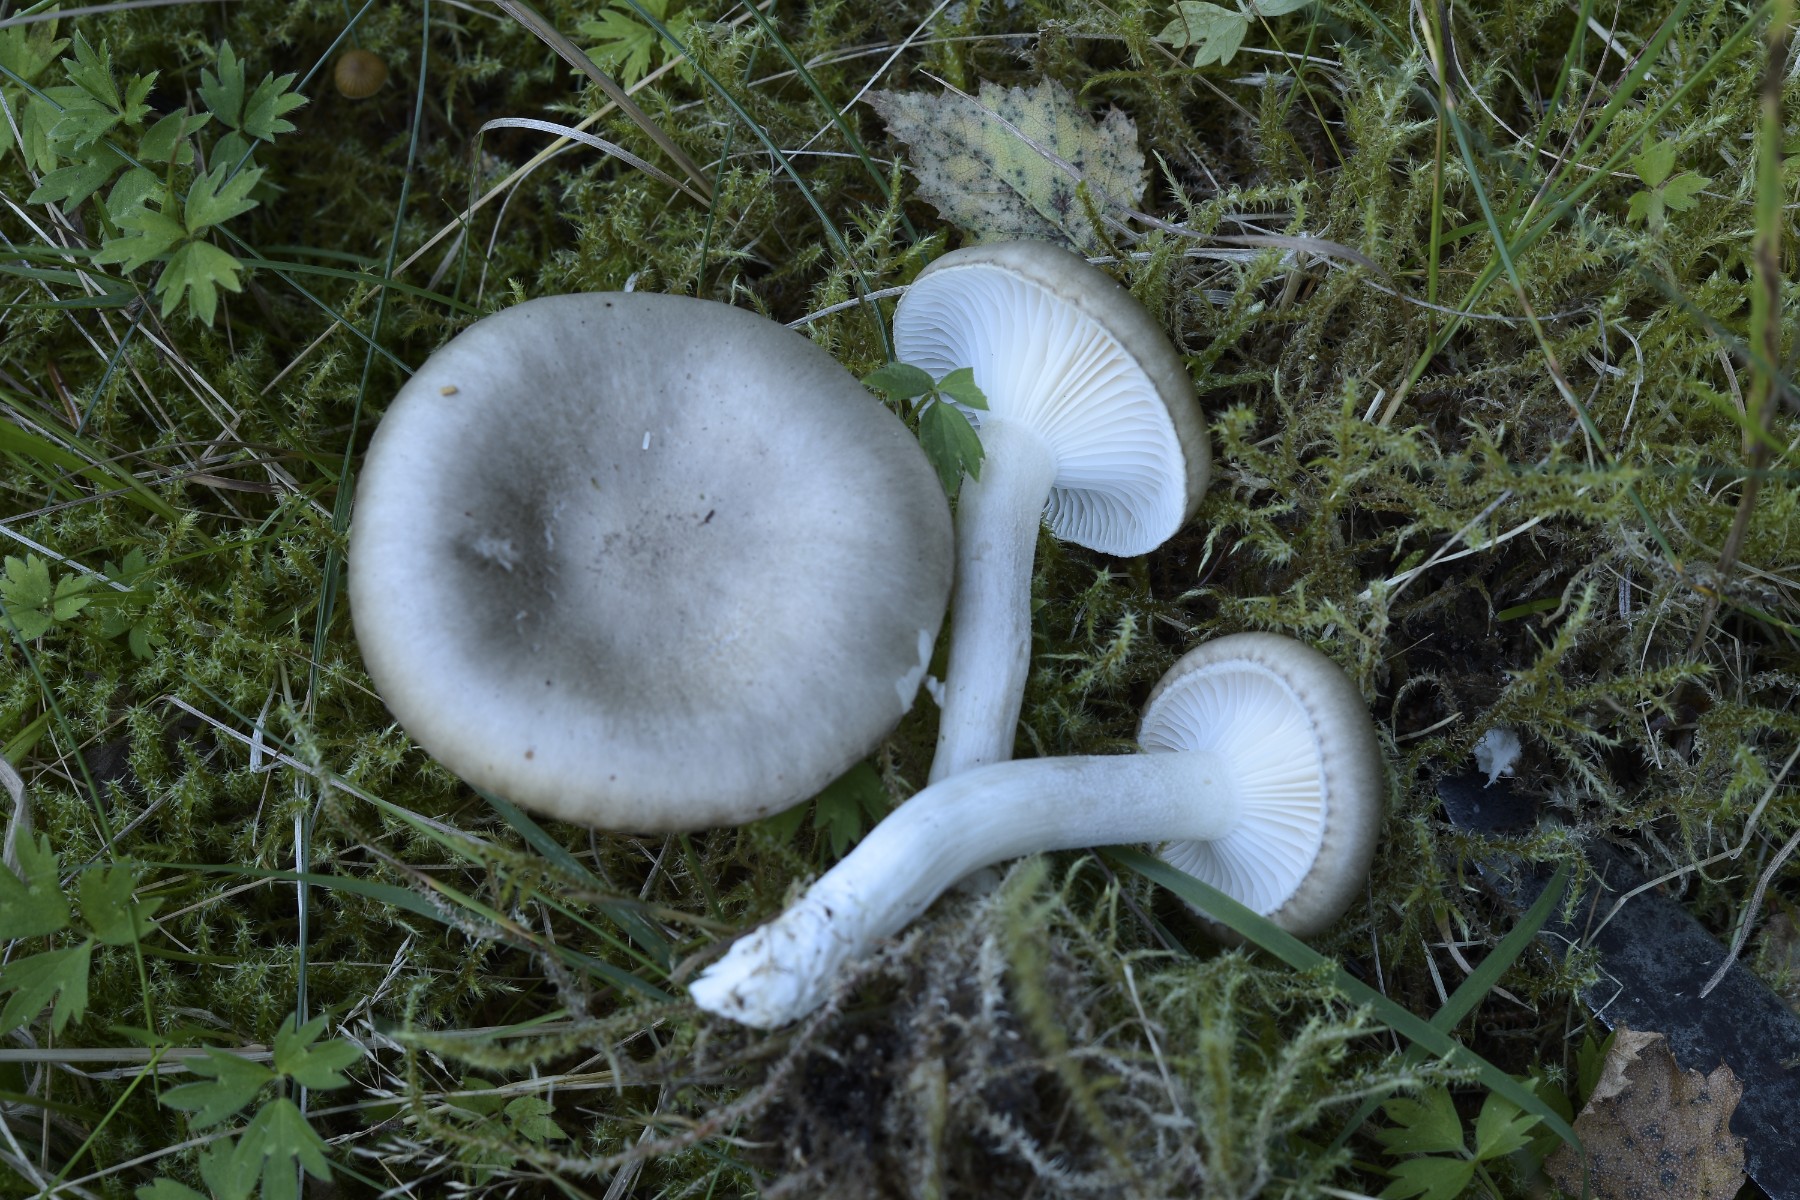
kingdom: Fungi
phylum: Basidiomycota
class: Agaricomycetes
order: Agaricales
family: Hygrophoraceae
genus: Hygrophorus
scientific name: Hygrophorus agathosmus
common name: vellugtende sneglehat
